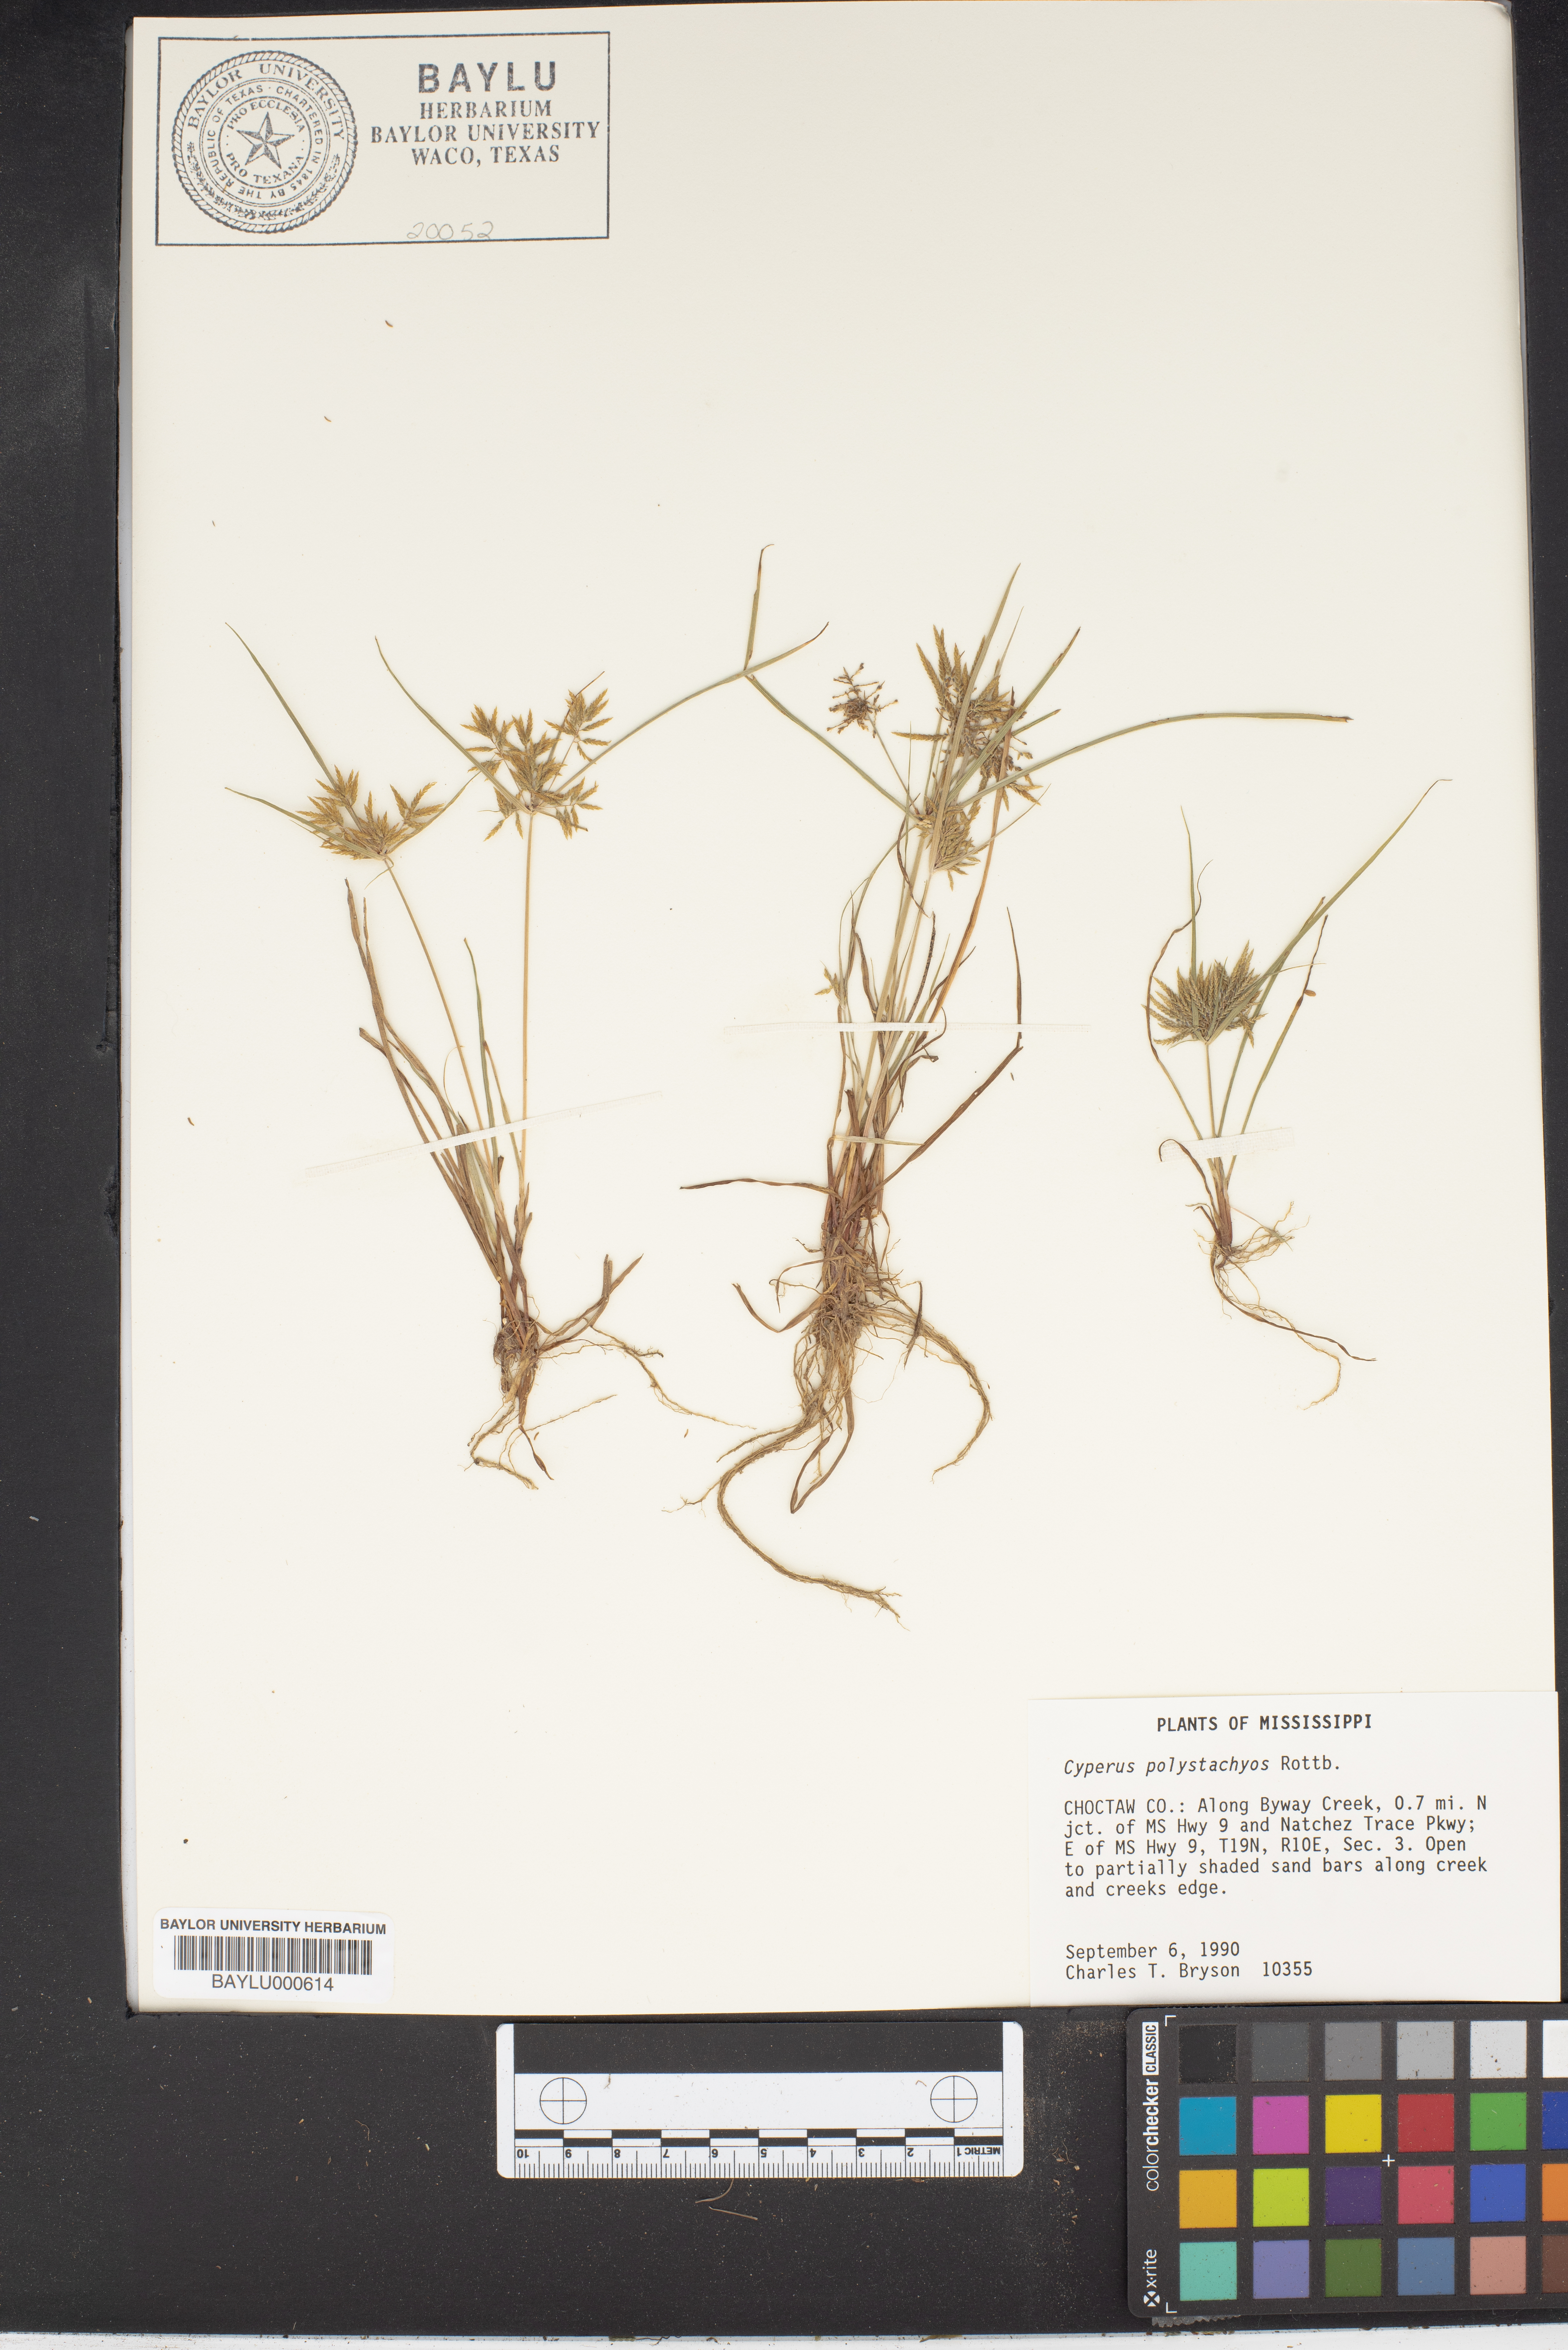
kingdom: Plantae
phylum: Tracheophyta
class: Liliopsida
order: Poales
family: Cyperaceae
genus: Cyperus
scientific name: Cyperus polystachyos
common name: Bunchy flat sedge
